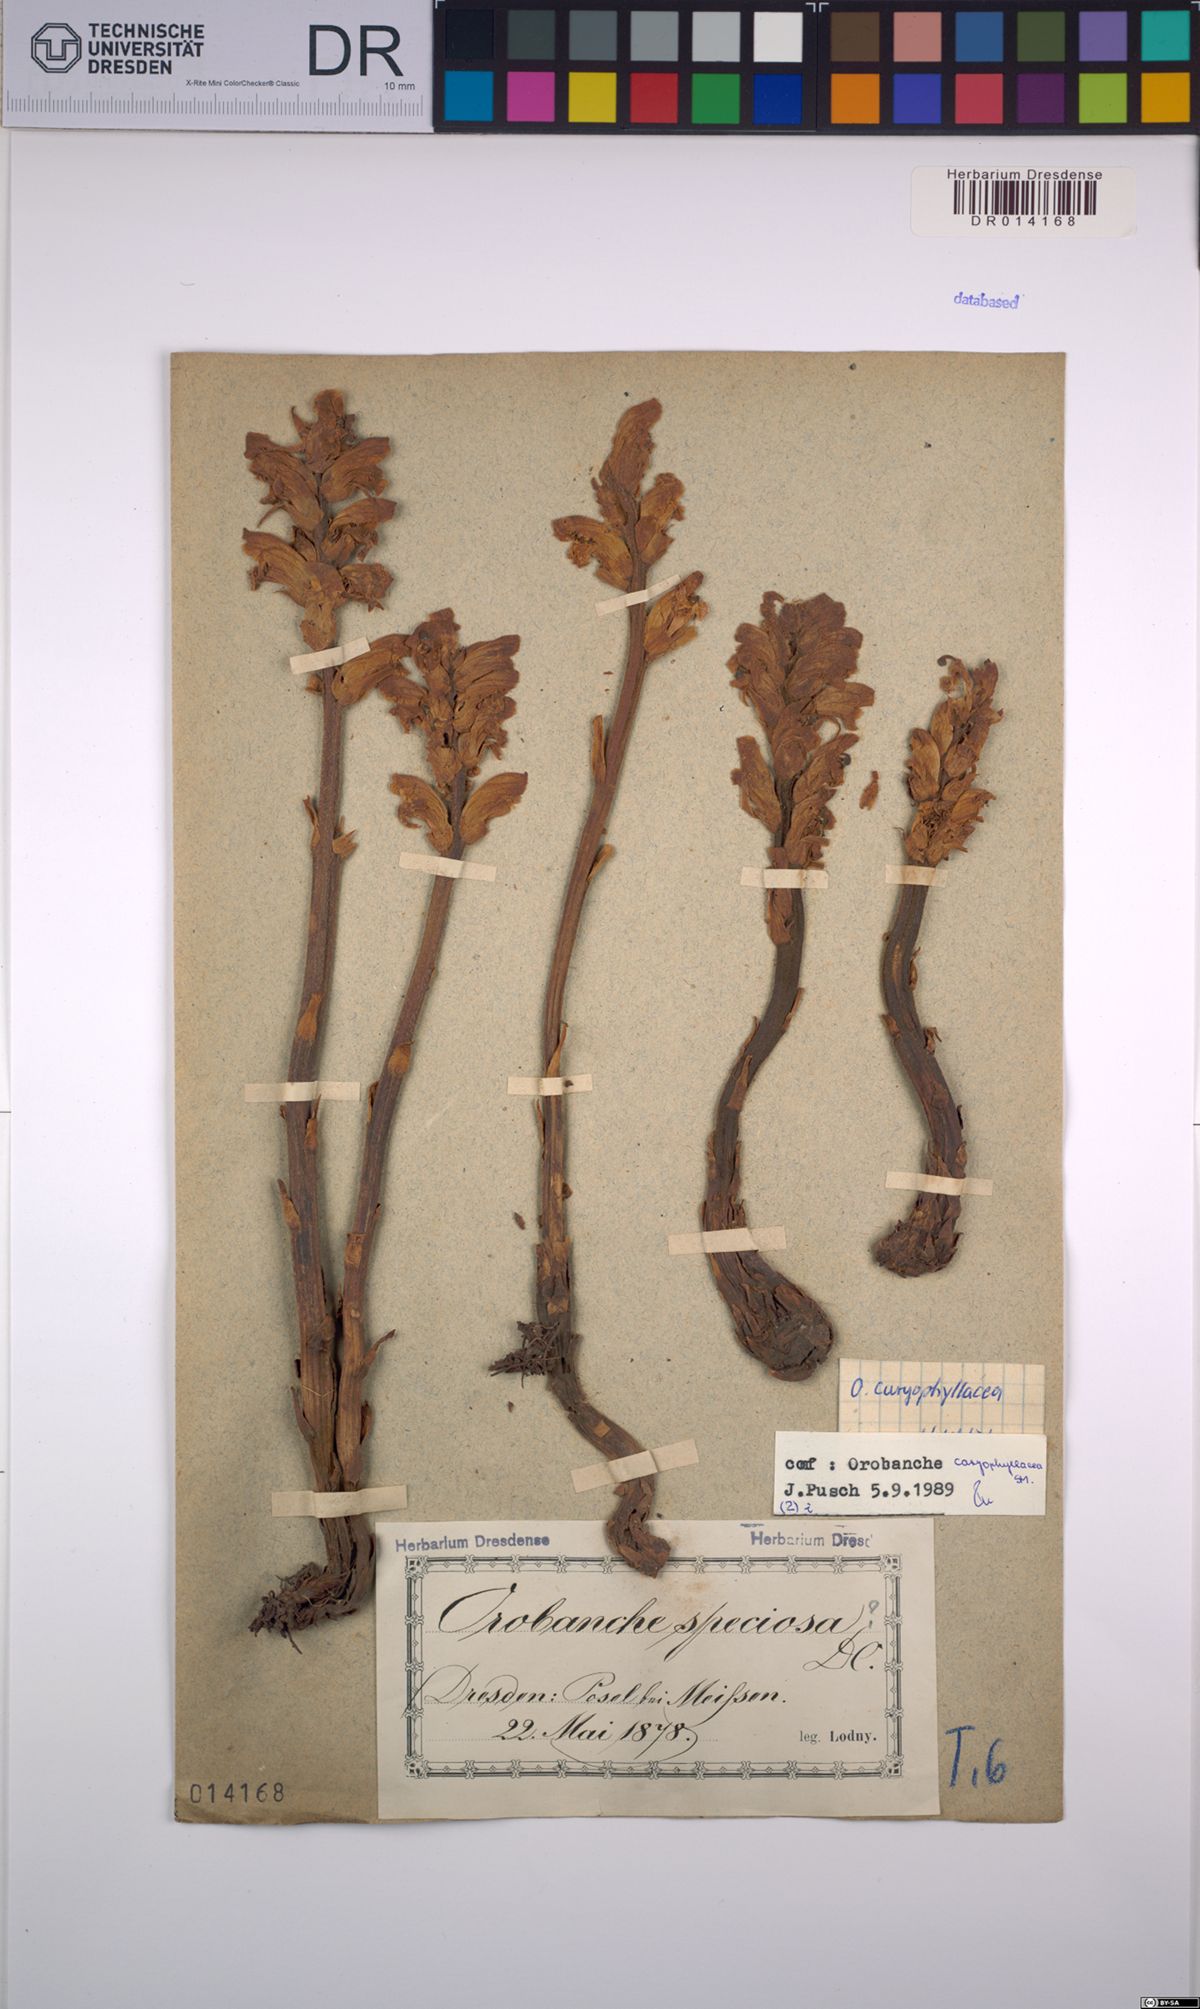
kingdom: Plantae
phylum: Tracheophyta
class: Magnoliopsida
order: Lamiales
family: Orobanchaceae
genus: Orobanche
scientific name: Orobanche caryophyllacea
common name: Bedstraw broomrape
